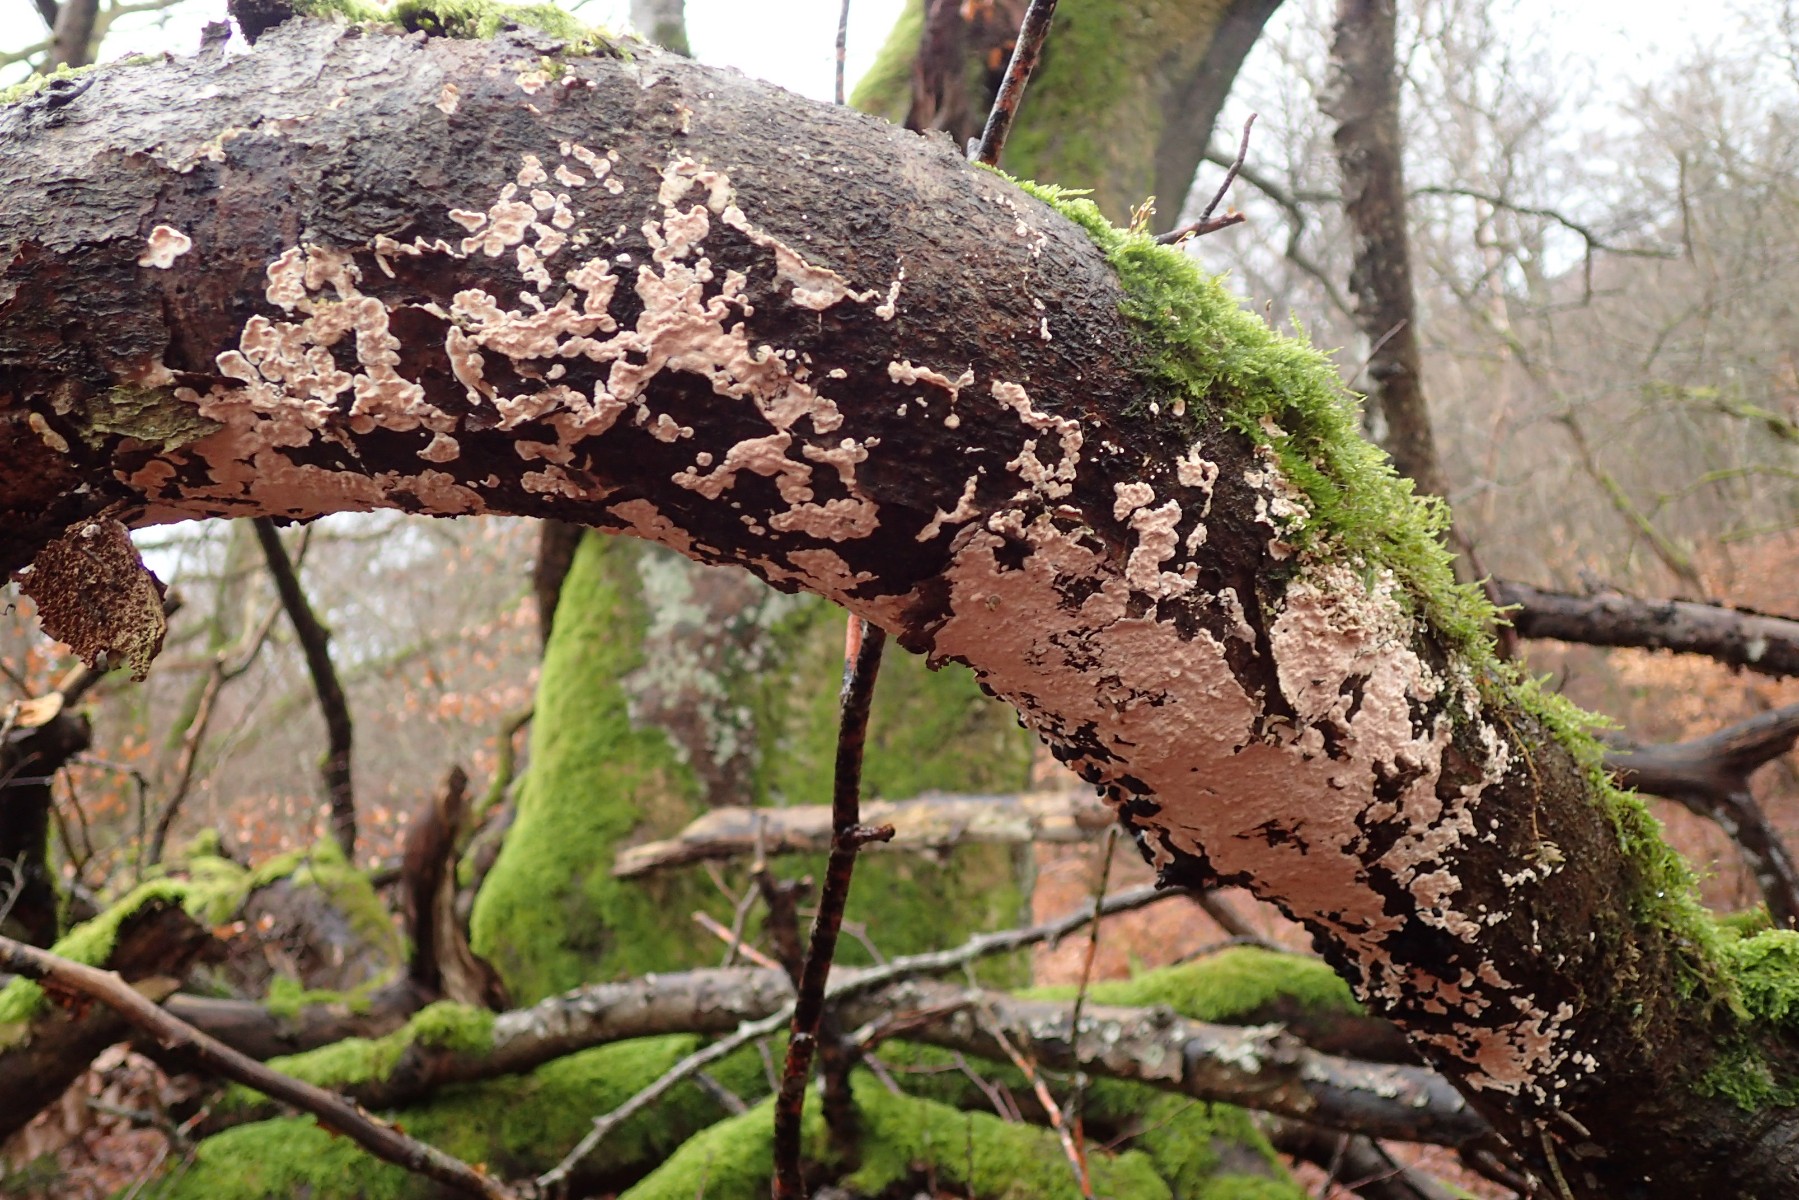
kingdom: Fungi
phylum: Basidiomycota
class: Agaricomycetes
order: Polyporales
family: Steccherinaceae
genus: Steccherinum
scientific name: Steccherinum ochraceum
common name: almindelig skønpig
